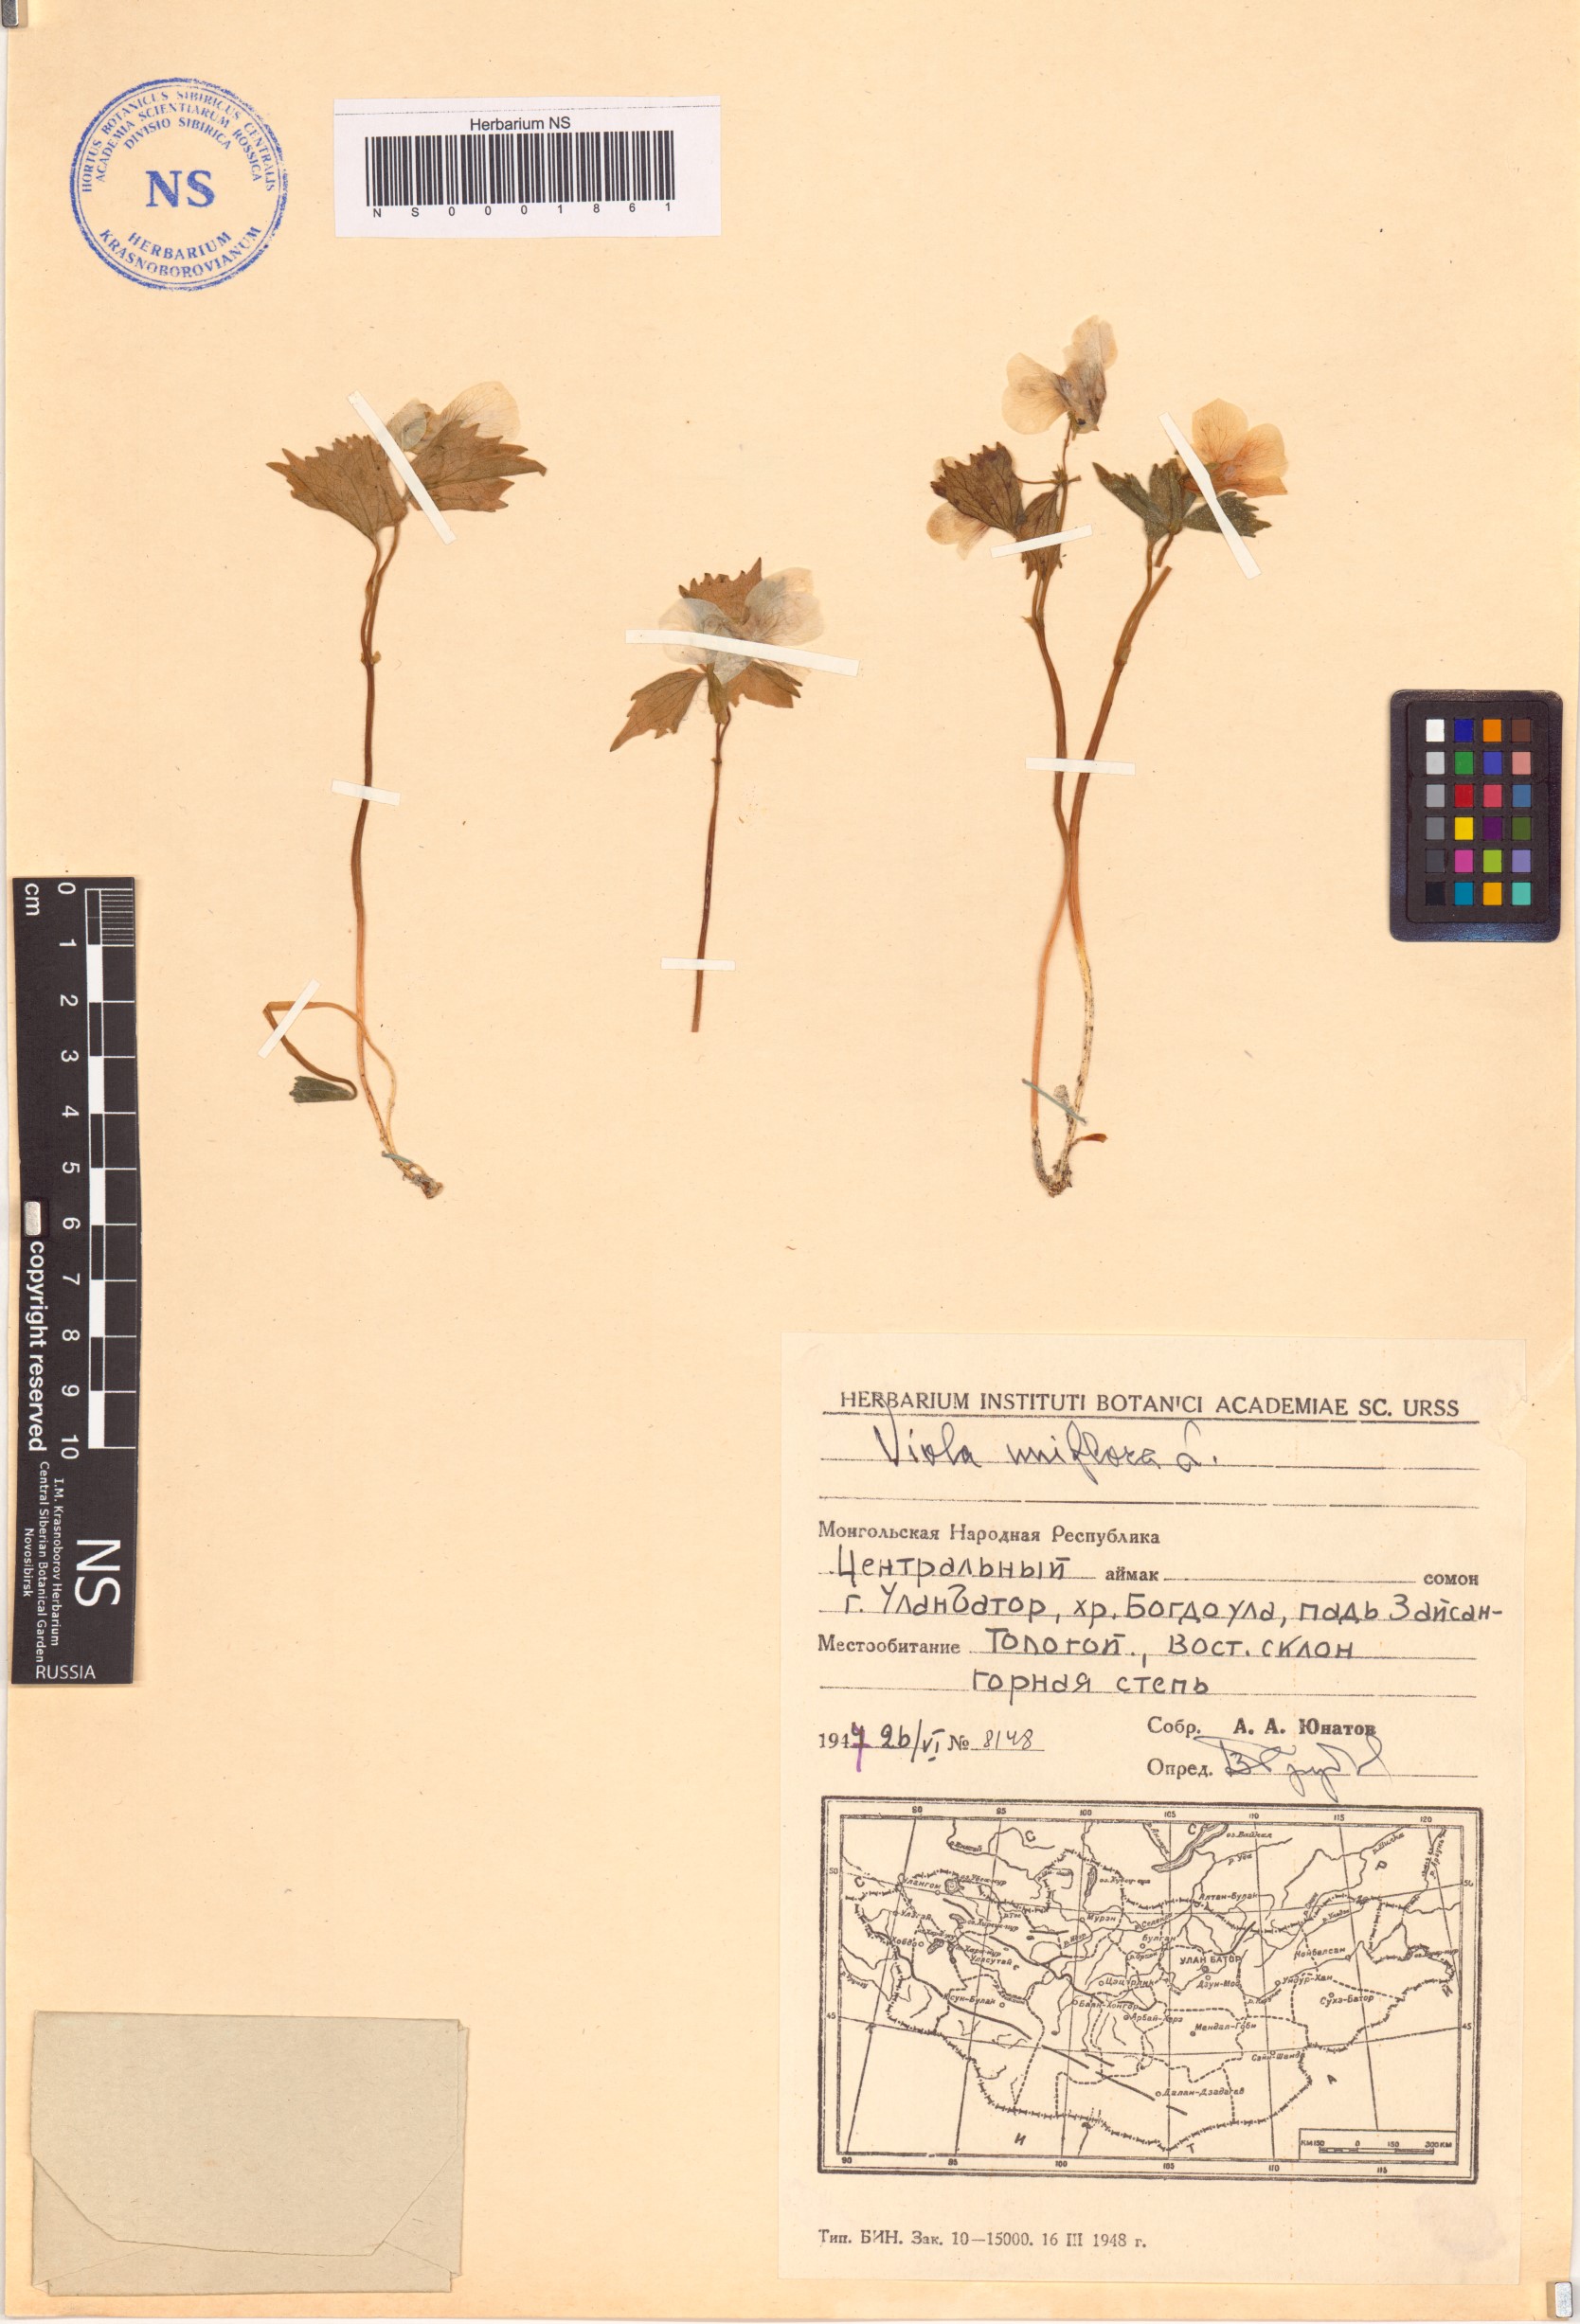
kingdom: Plantae
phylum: Tracheophyta
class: Magnoliopsida
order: Malpighiales
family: Violaceae
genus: Viola
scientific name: Viola uniflora
